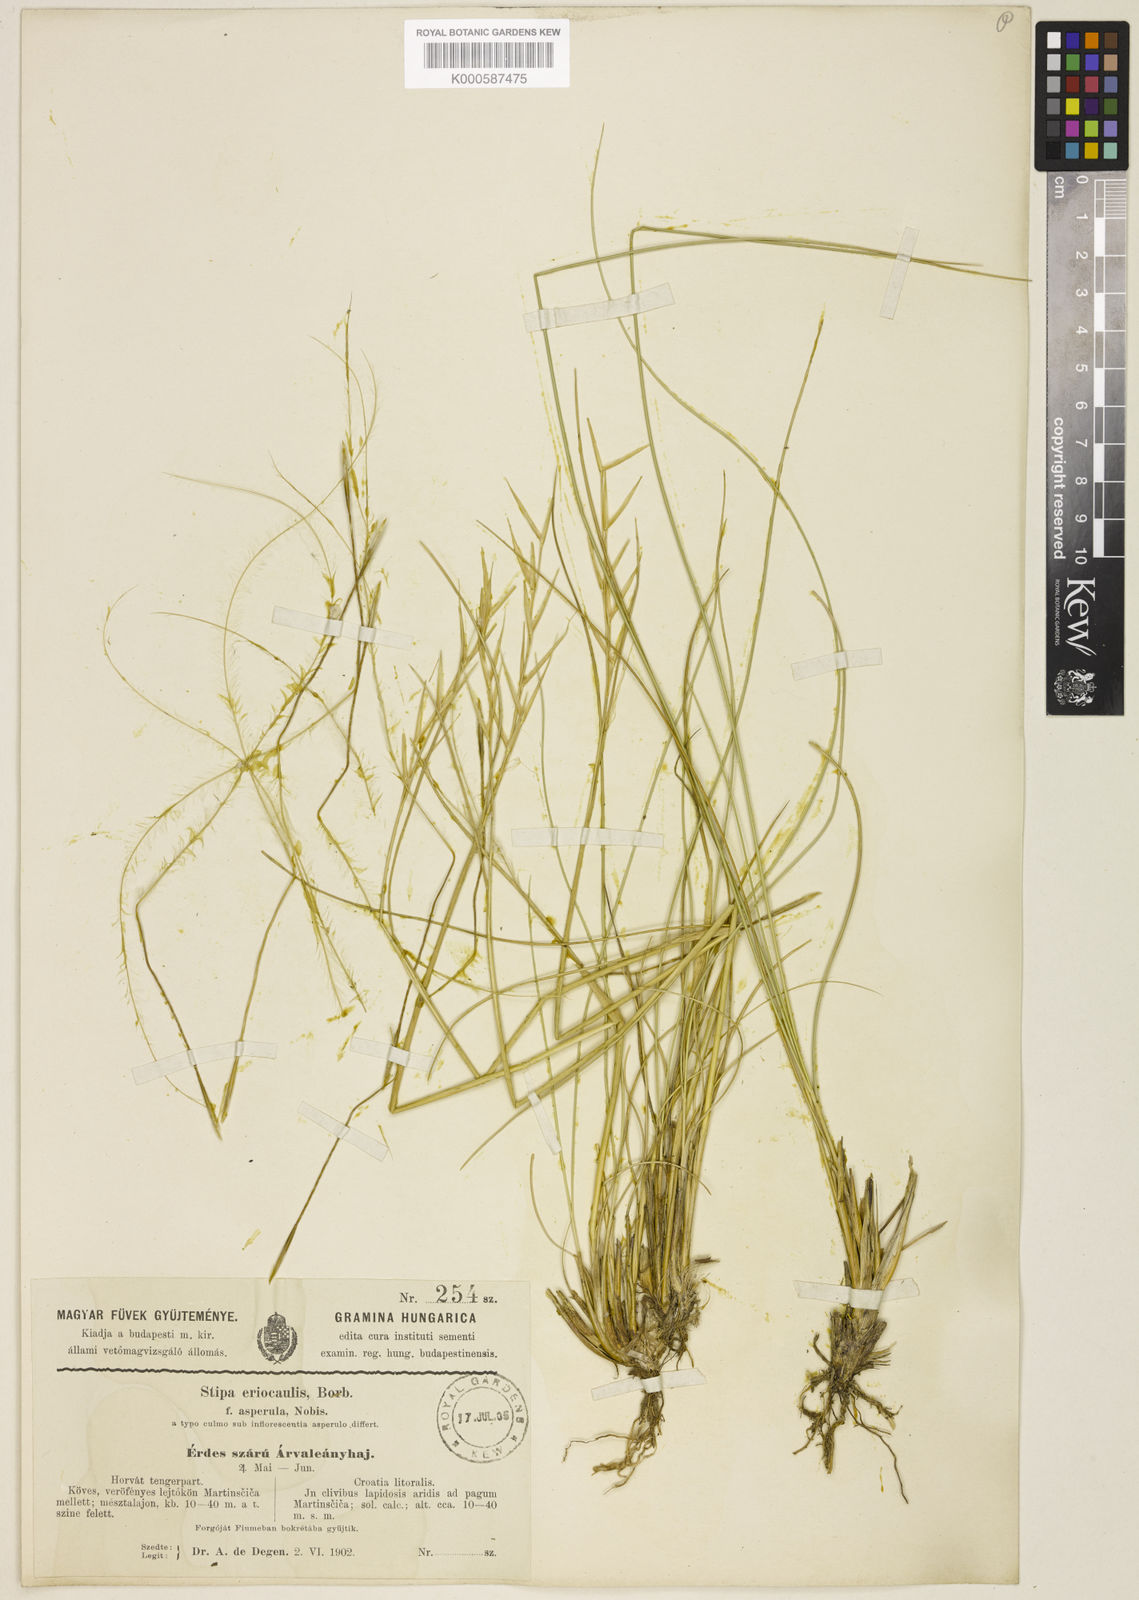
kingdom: Plantae
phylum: Tracheophyta
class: Liliopsida
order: Poales
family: Poaceae
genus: Stipa
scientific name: Stipa
